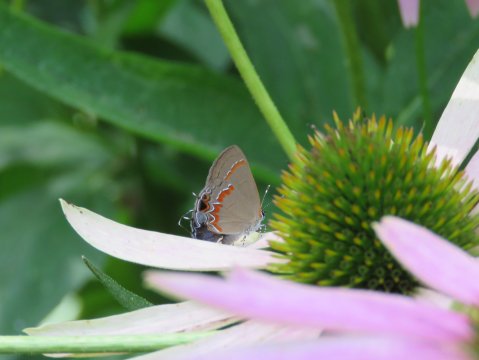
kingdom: Animalia
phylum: Arthropoda
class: Insecta
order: Lepidoptera
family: Lycaenidae
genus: Calycopis
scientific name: Calycopis cecrops
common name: Red-banded Hairstreak
